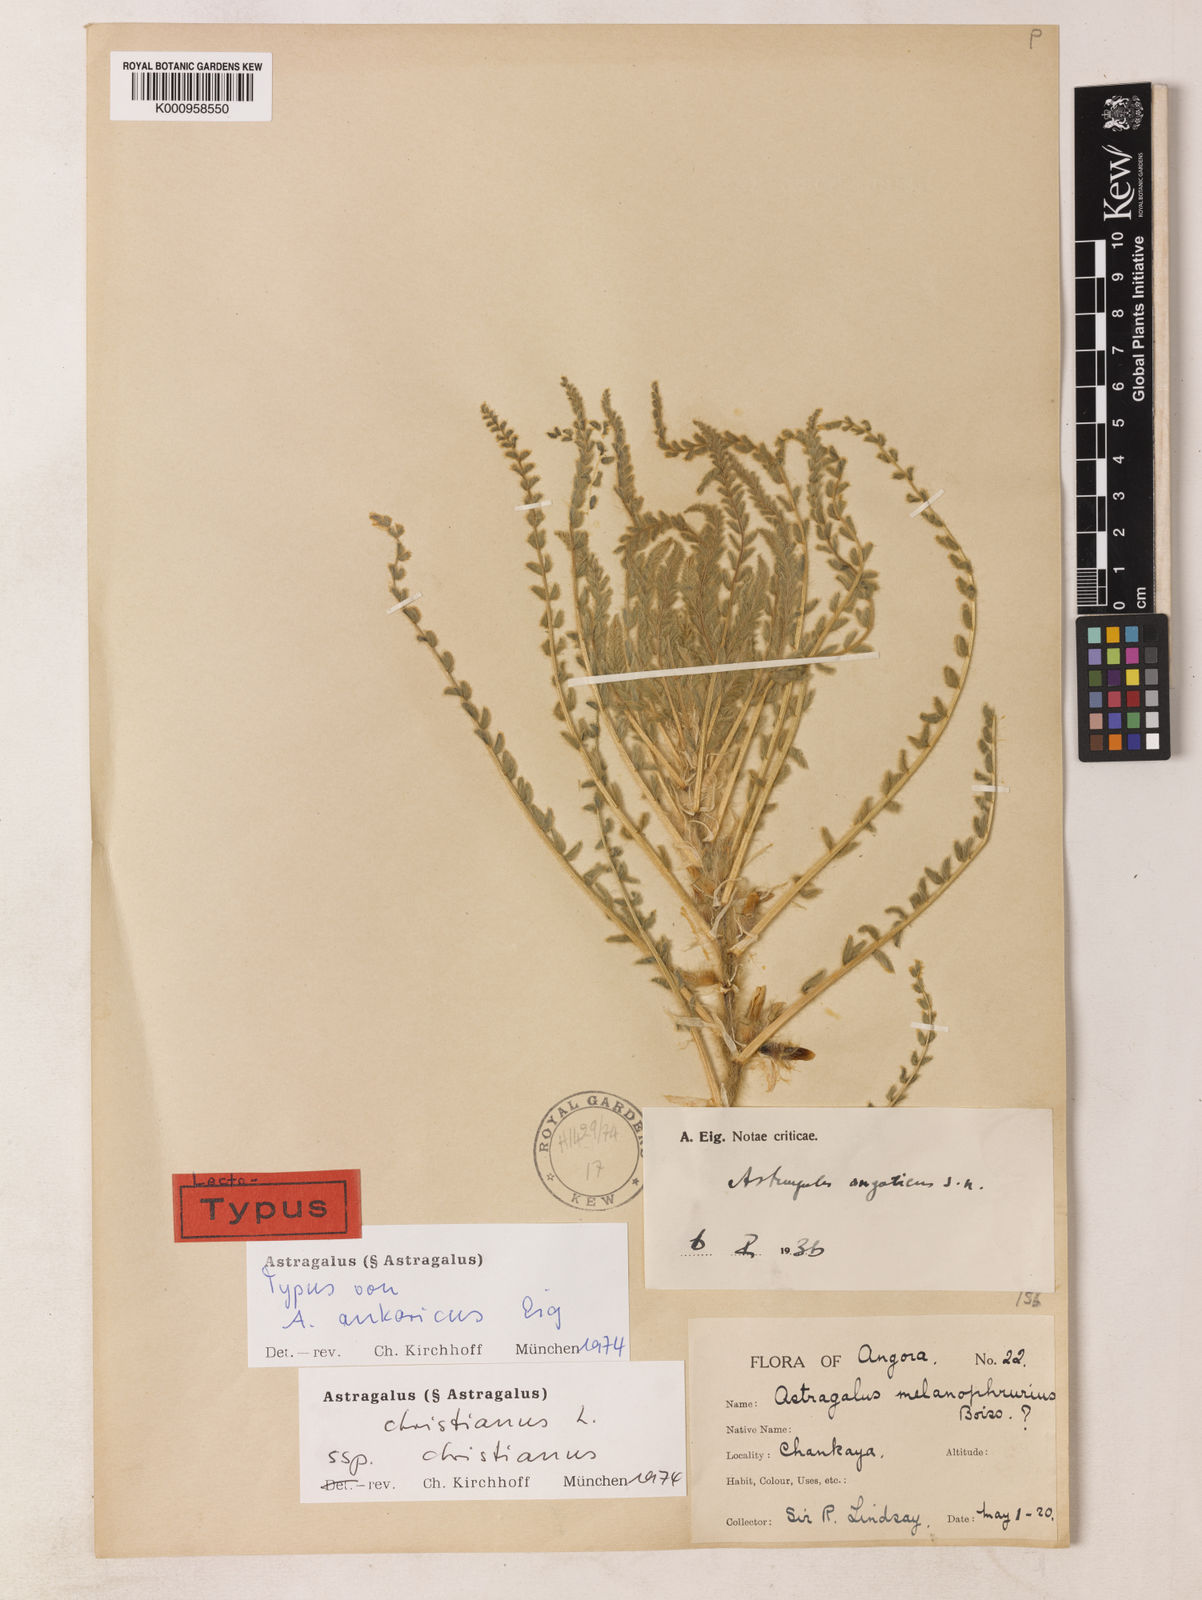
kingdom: Plantae
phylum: Tracheophyta
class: Magnoliopsida
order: Fabales
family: Fabaceae
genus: Astragalus
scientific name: Astragalus christianus
